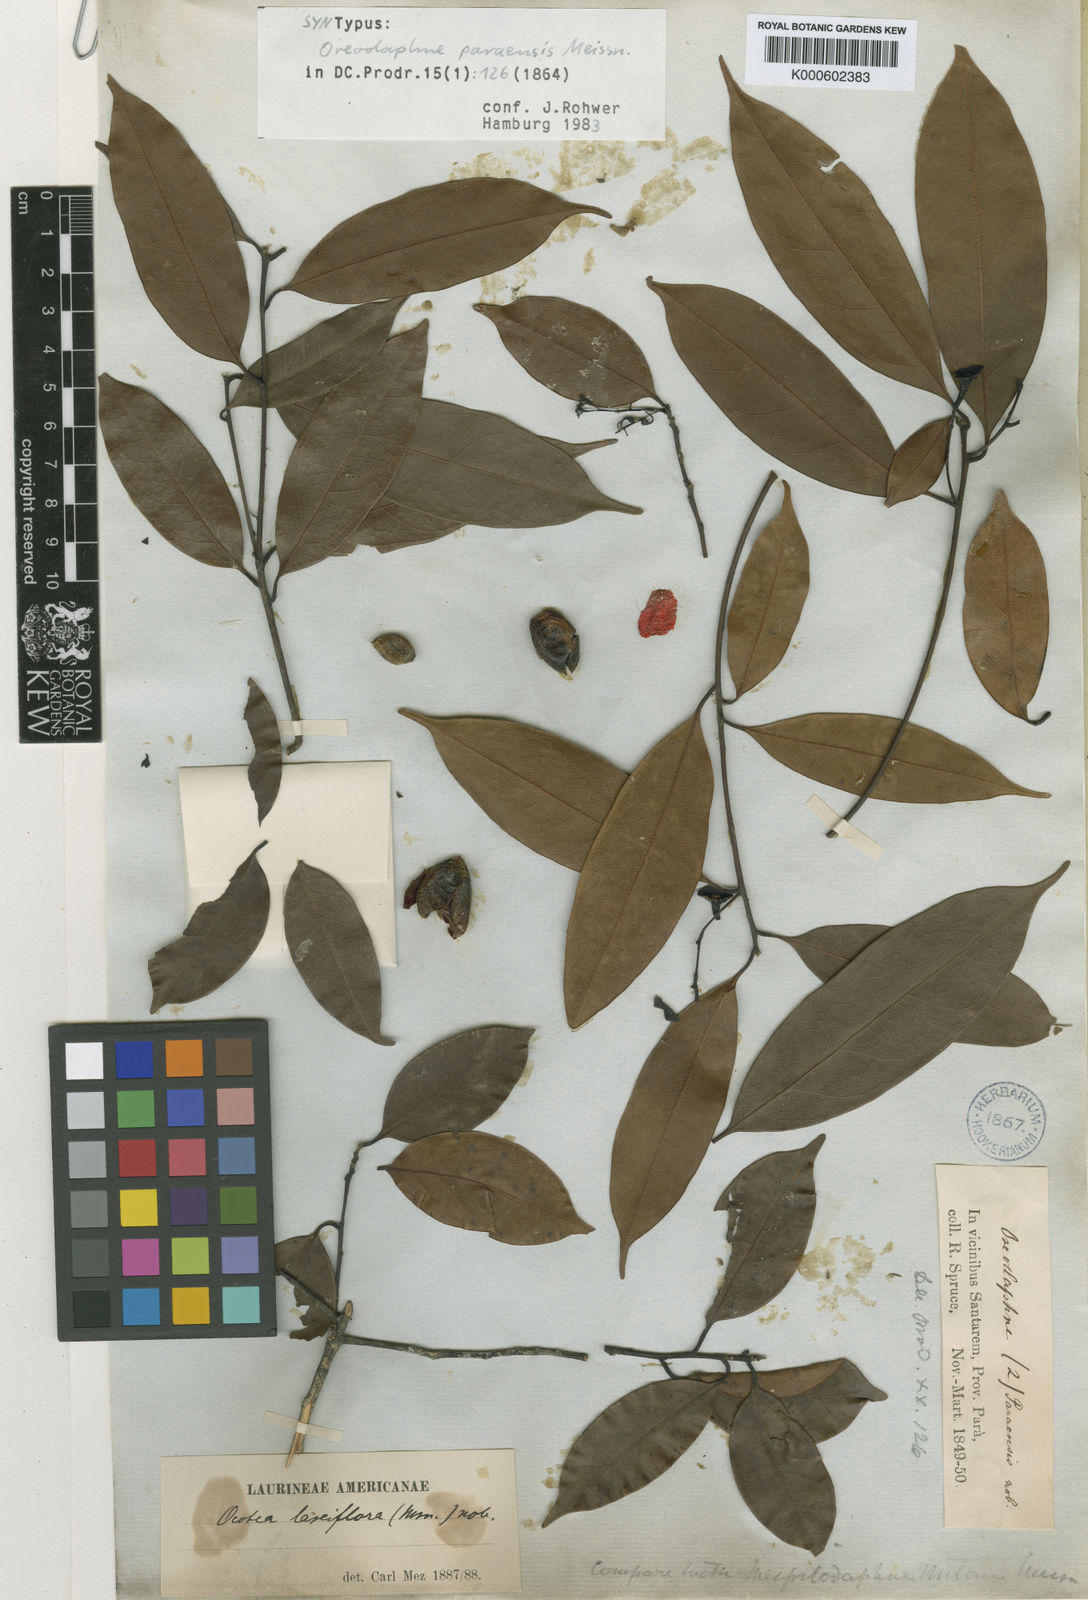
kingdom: Plantae
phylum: Tracheophyta
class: Magnoliopsida
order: Laurales
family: Lauraceae
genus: Ocotea
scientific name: Ocotea puberula
